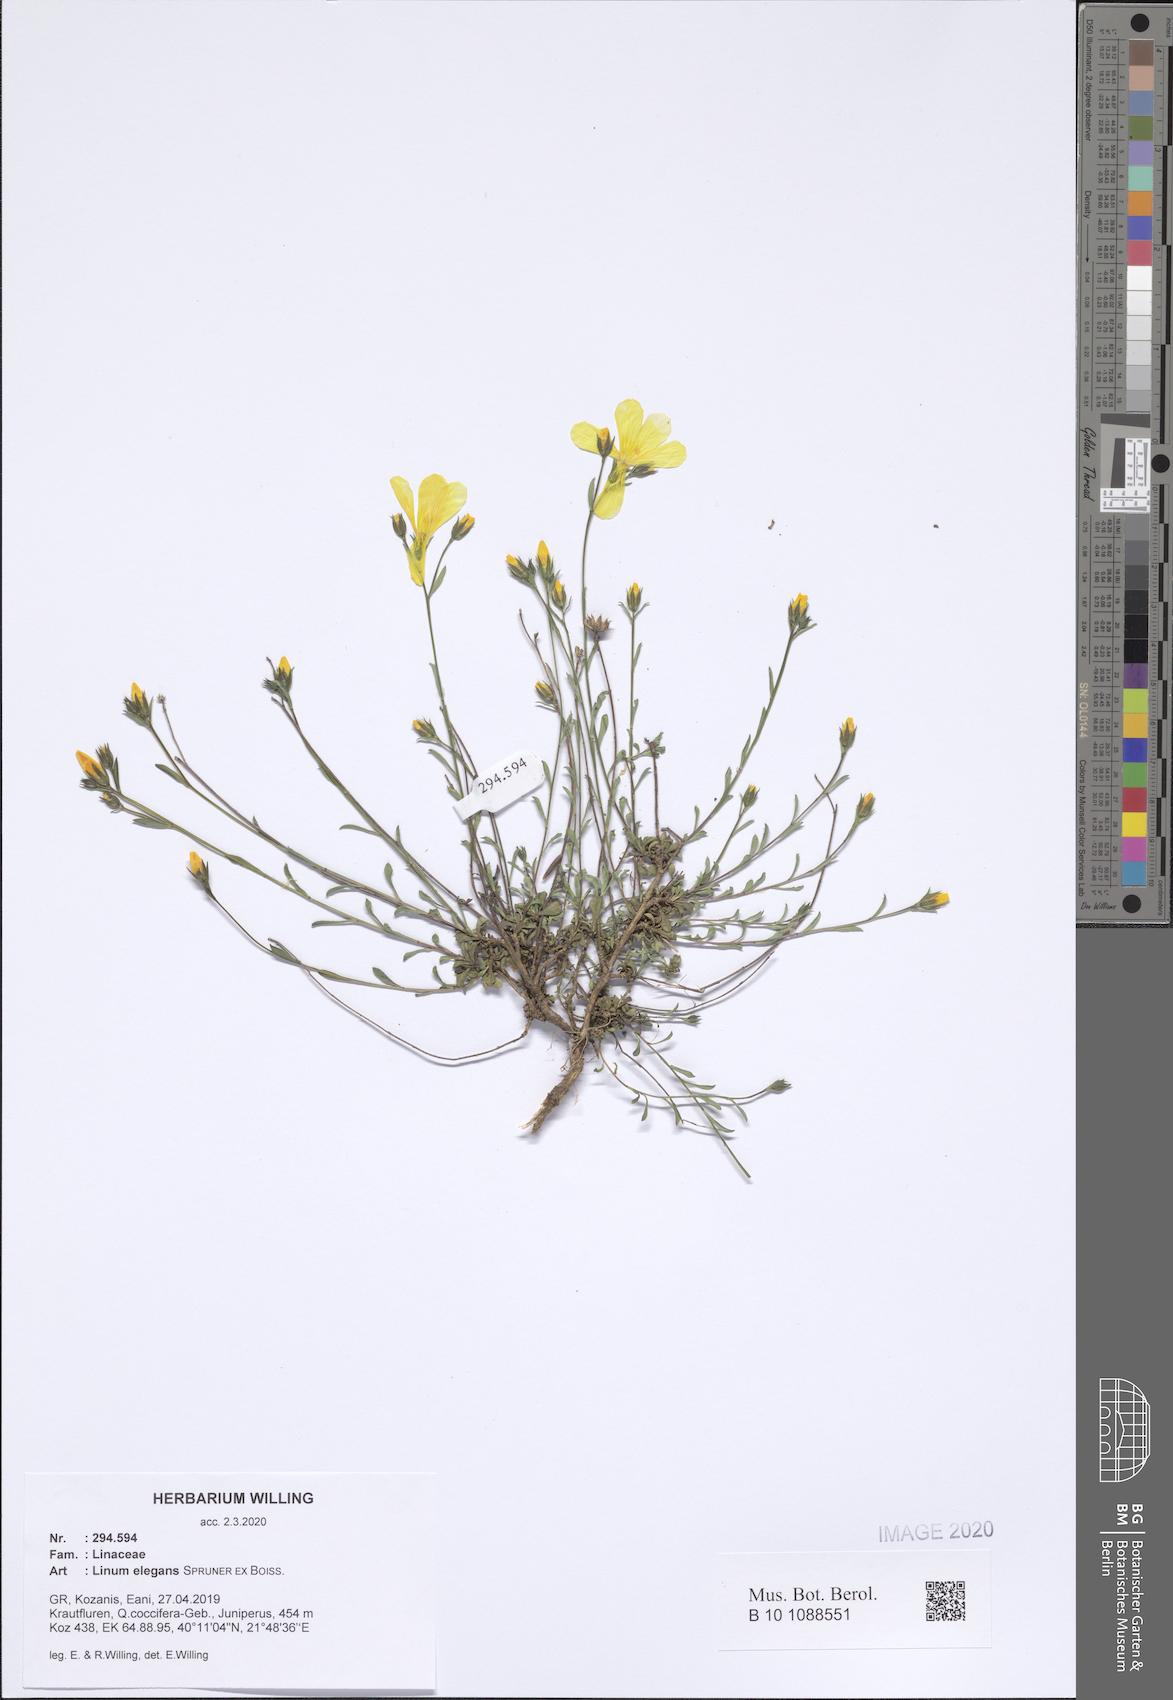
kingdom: Plantae
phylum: Tracheophyta
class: Magnoliopsida
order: Malpighiales
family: Linaceae
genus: Linum
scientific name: Linum elegans
